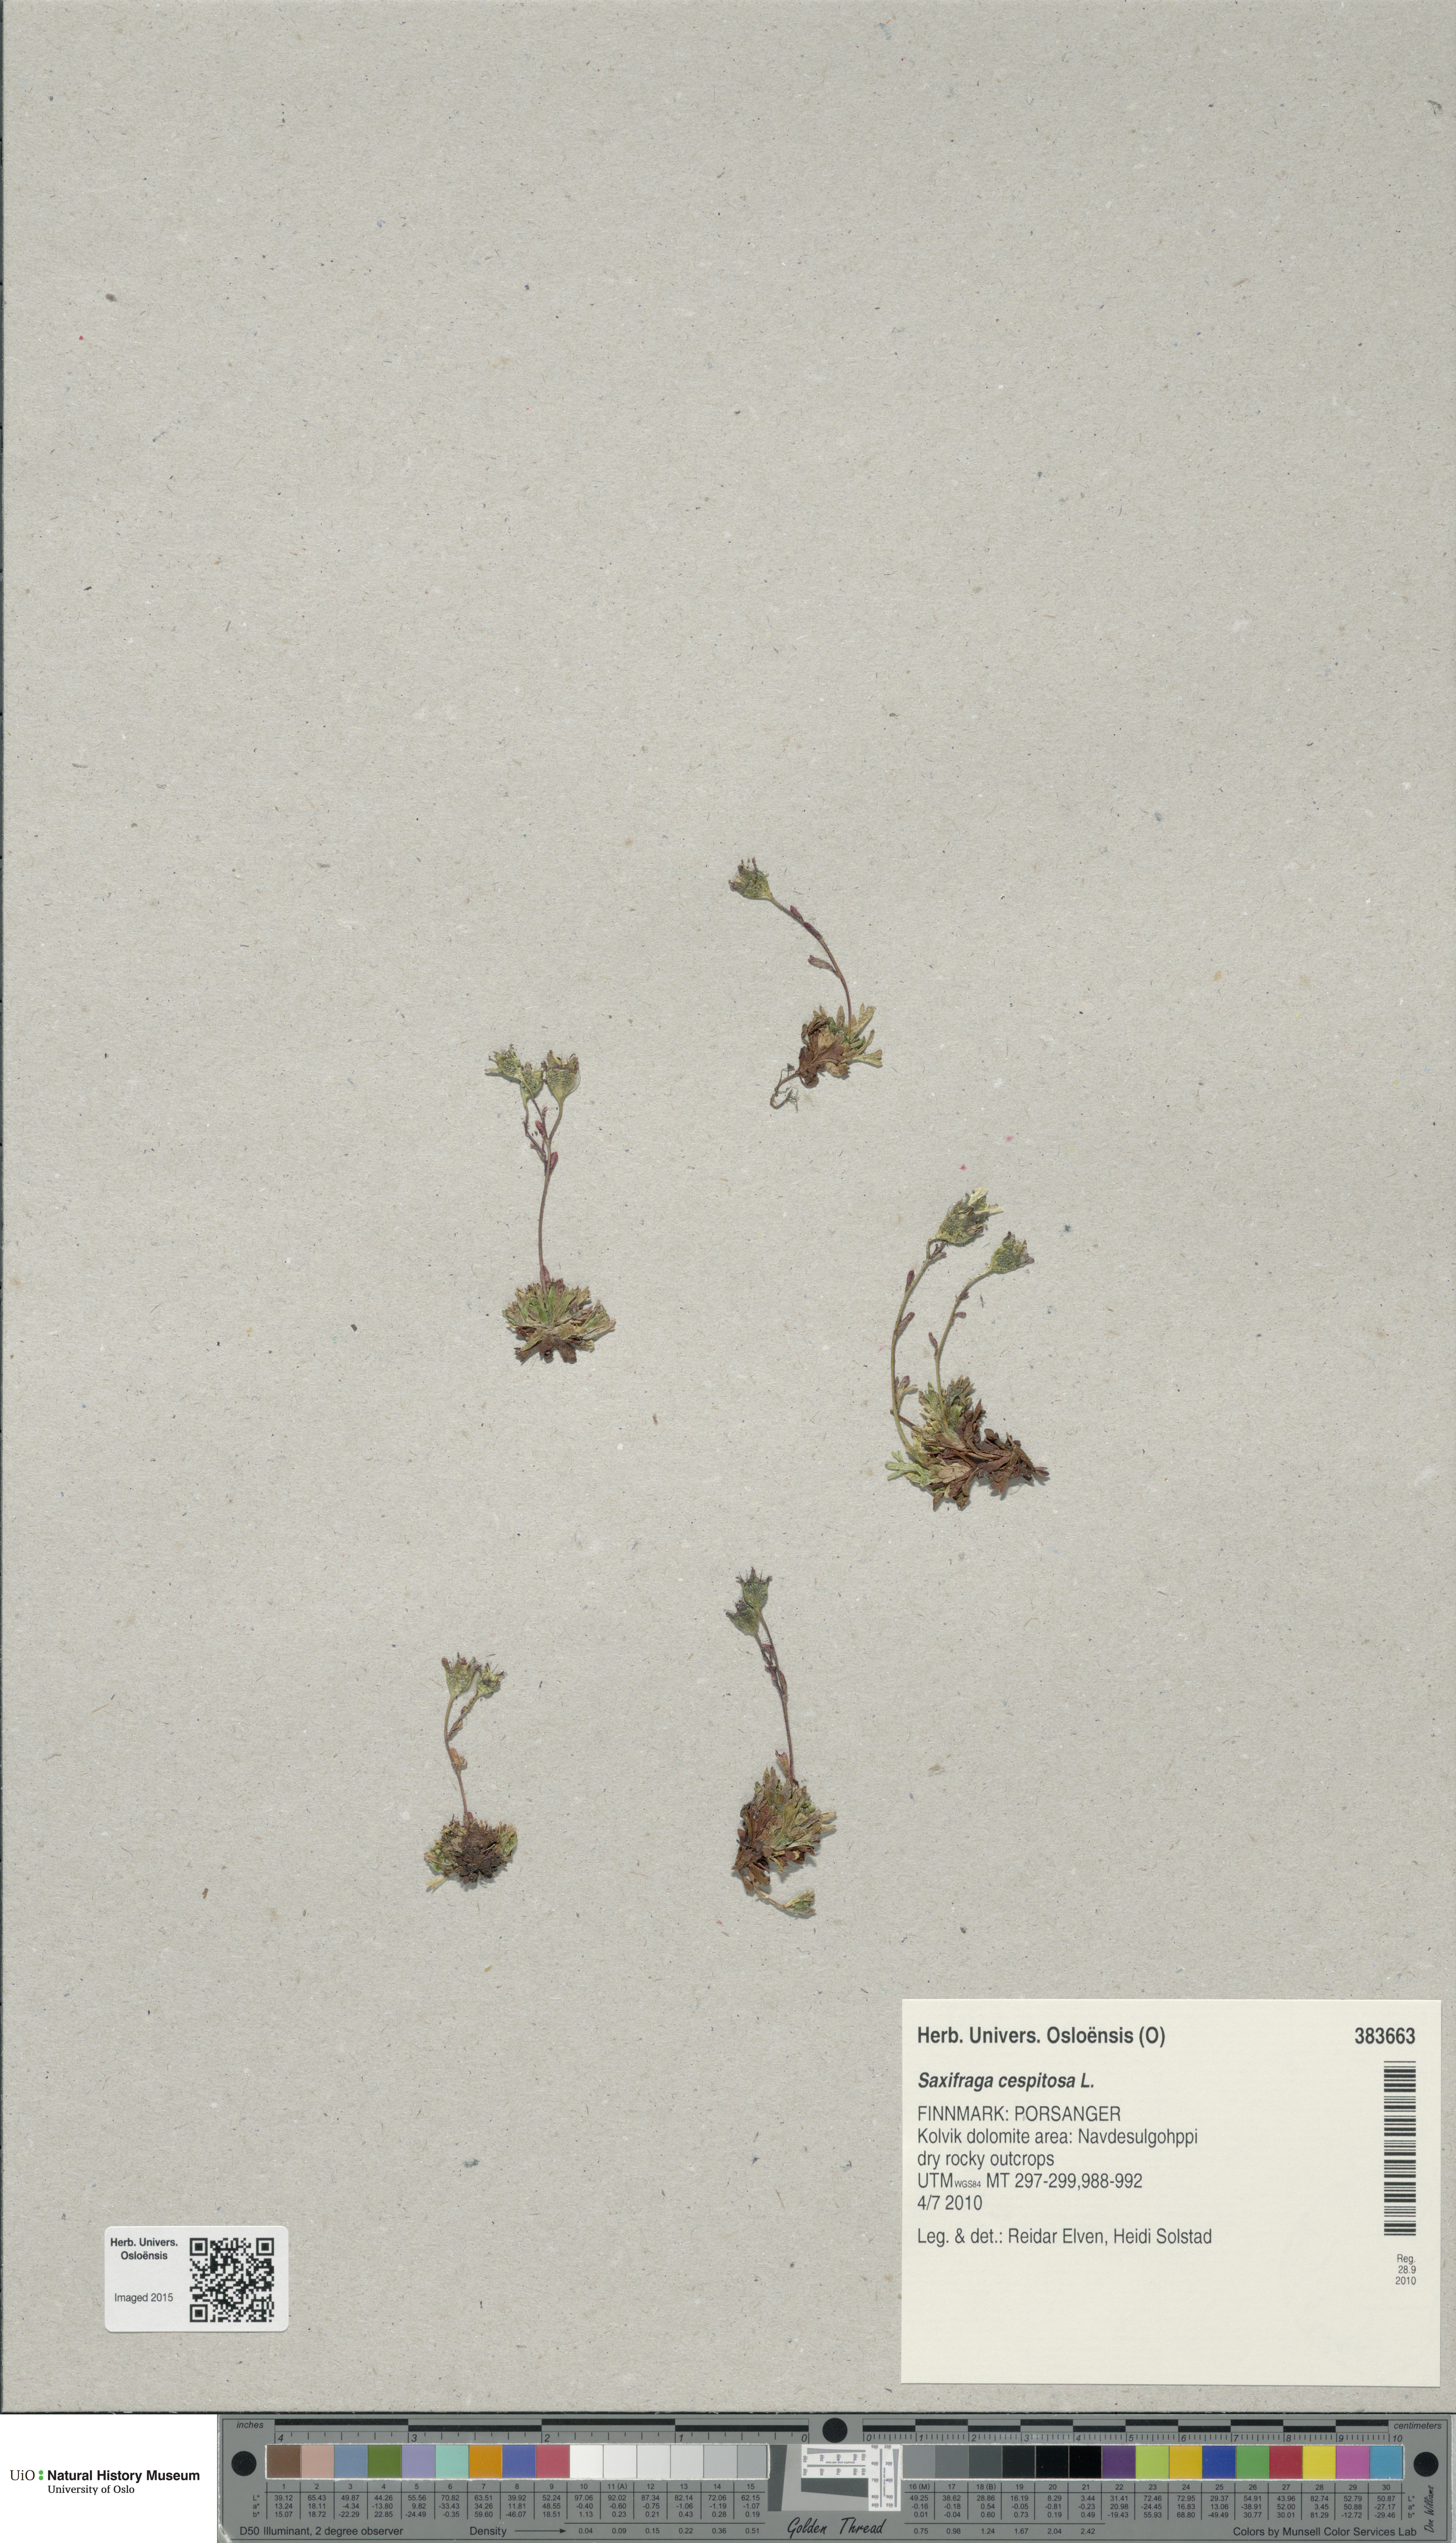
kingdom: Plantae
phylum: Tracheophyta
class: Magnoliopsida
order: Saxifragales
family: Saxifragaceae
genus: Saxifraga
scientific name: Saxifraga cespitosa
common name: Tufted saxifrage
